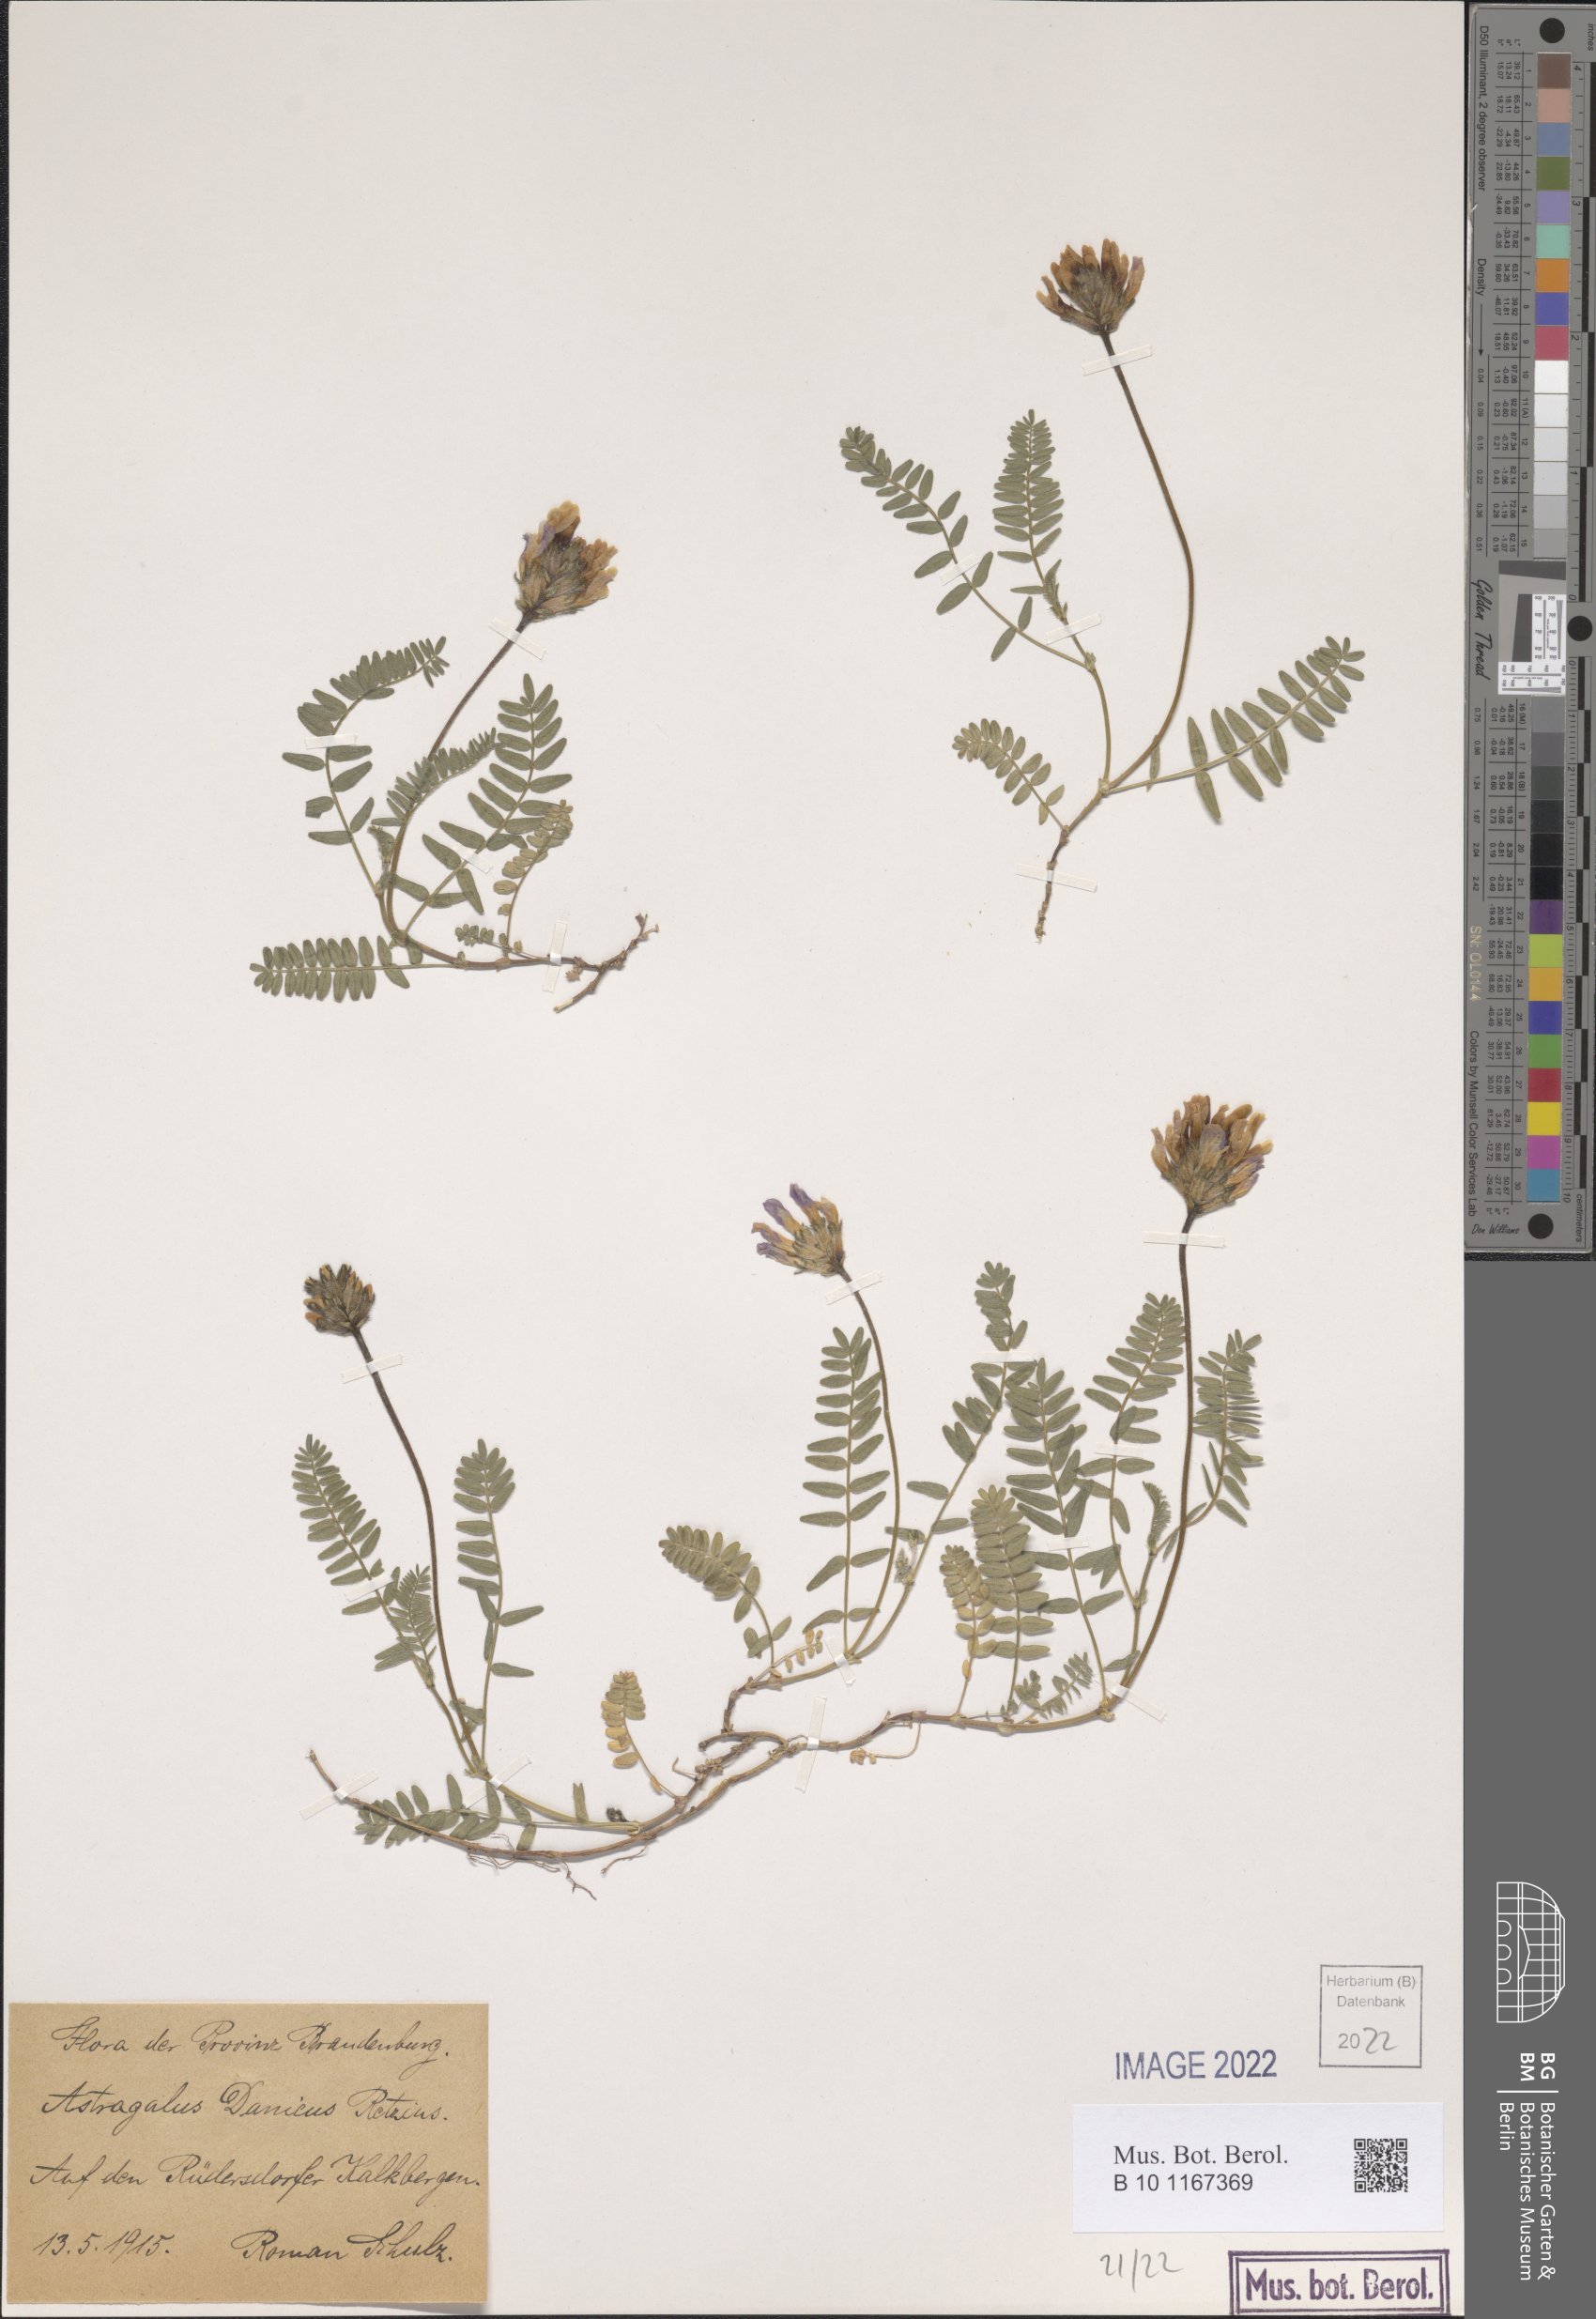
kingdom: Plantae
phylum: Tracheophyta
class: Magnoliopsida
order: Fabales
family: Fabaceae
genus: Astragalus
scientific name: Astragalus danicus
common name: Purple milk-vetch
